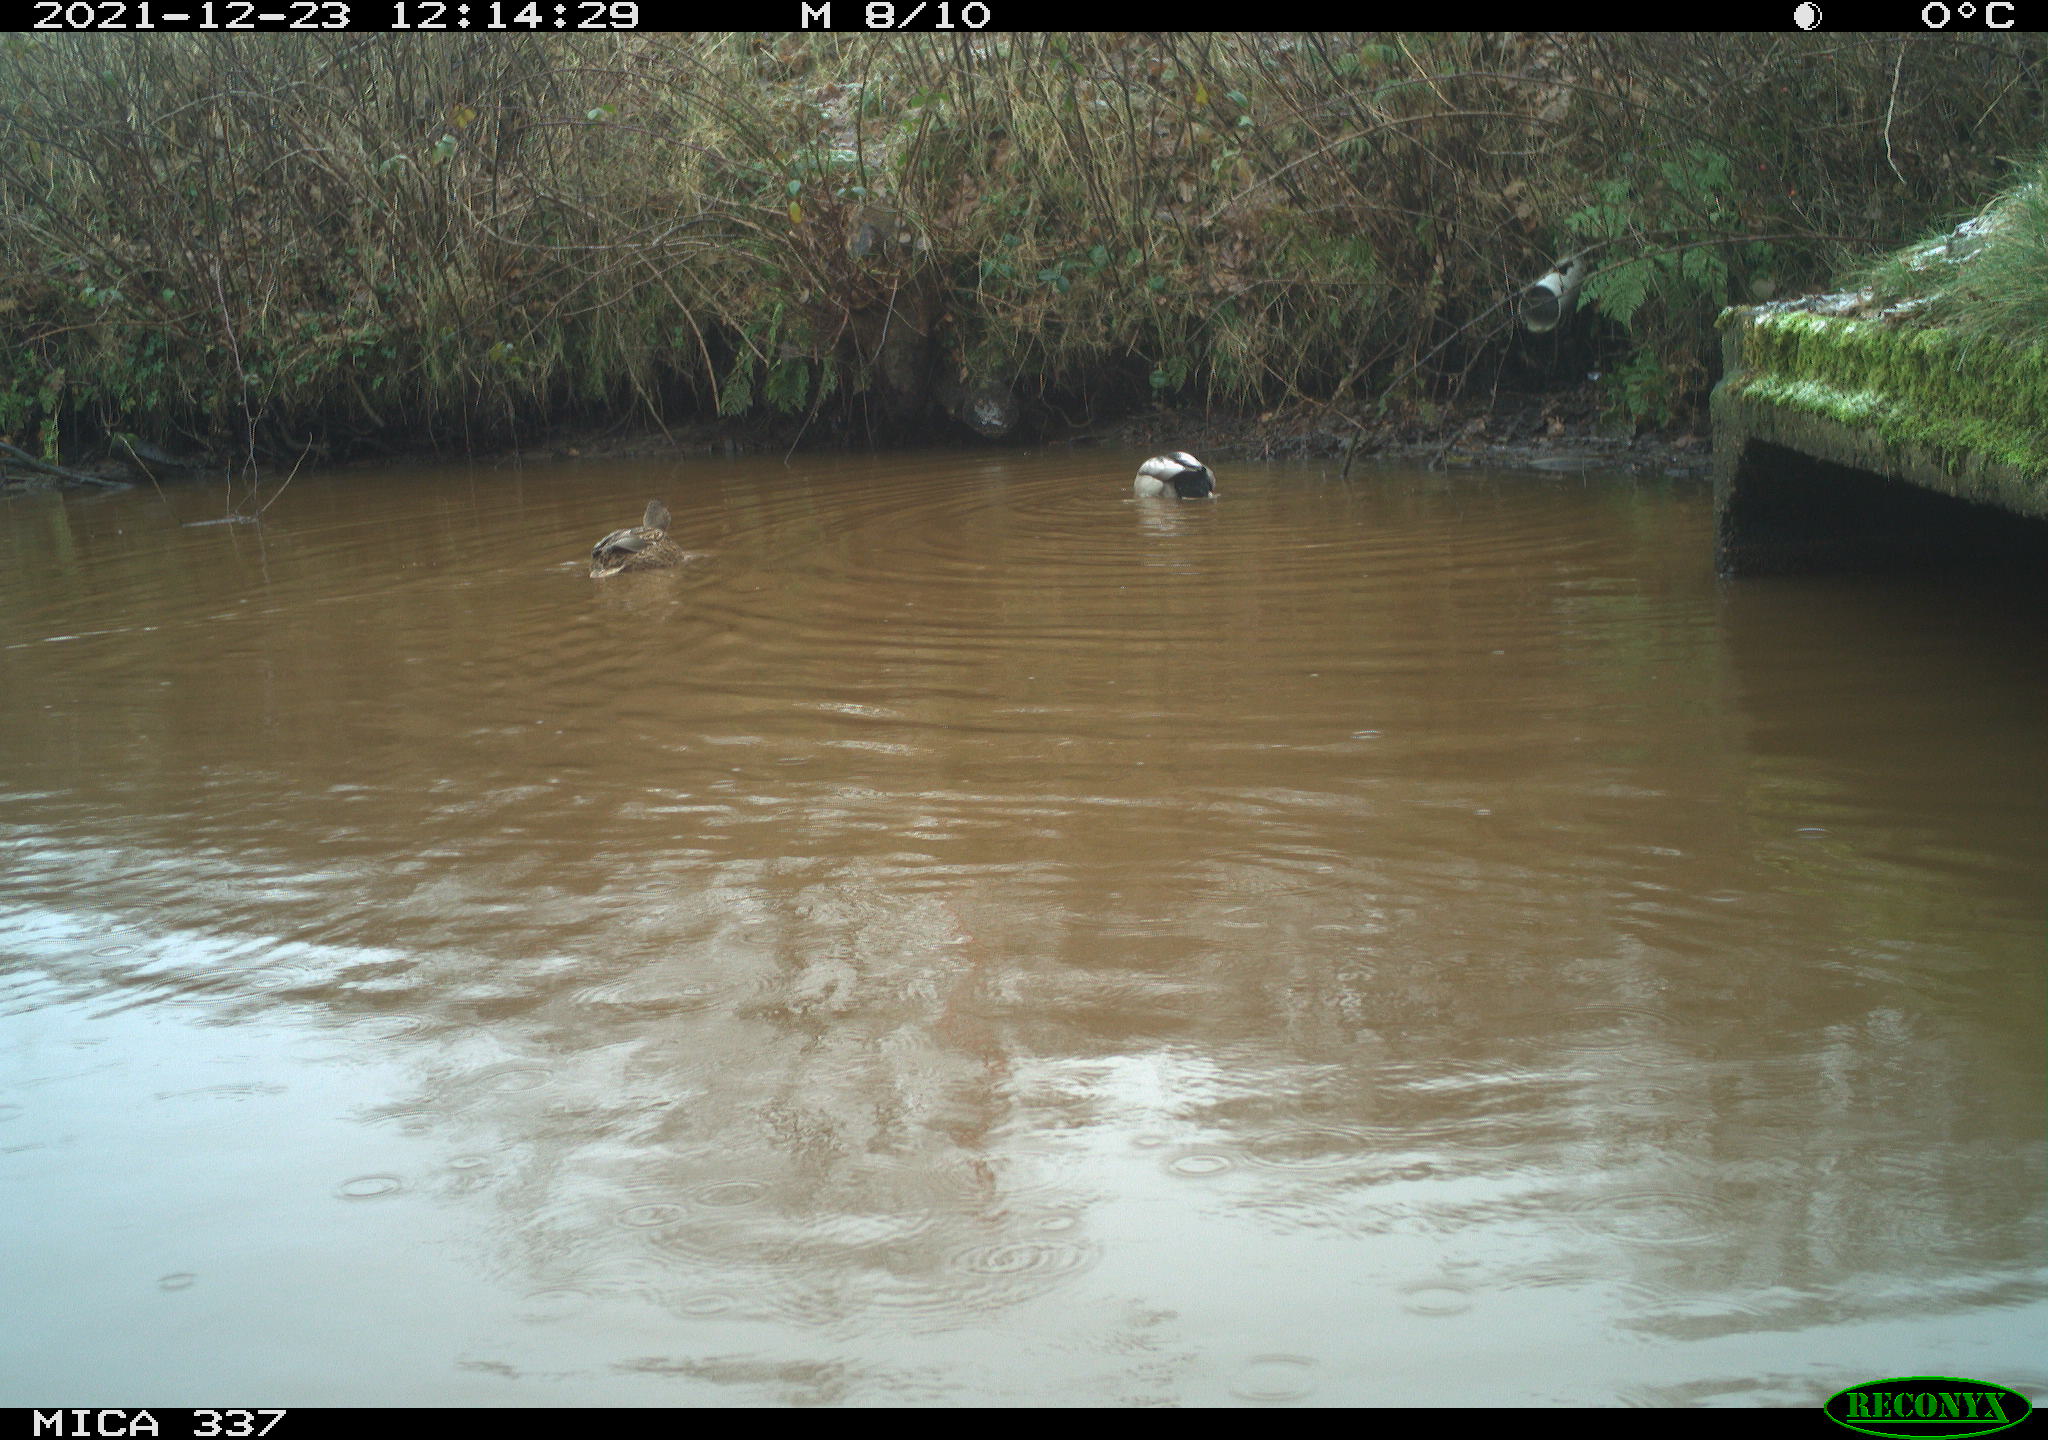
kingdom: Animalia
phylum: Chordata
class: Aves
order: Anseriformes
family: Anatidae
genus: Anas
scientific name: Anas platyrhynchos
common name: Mallard
